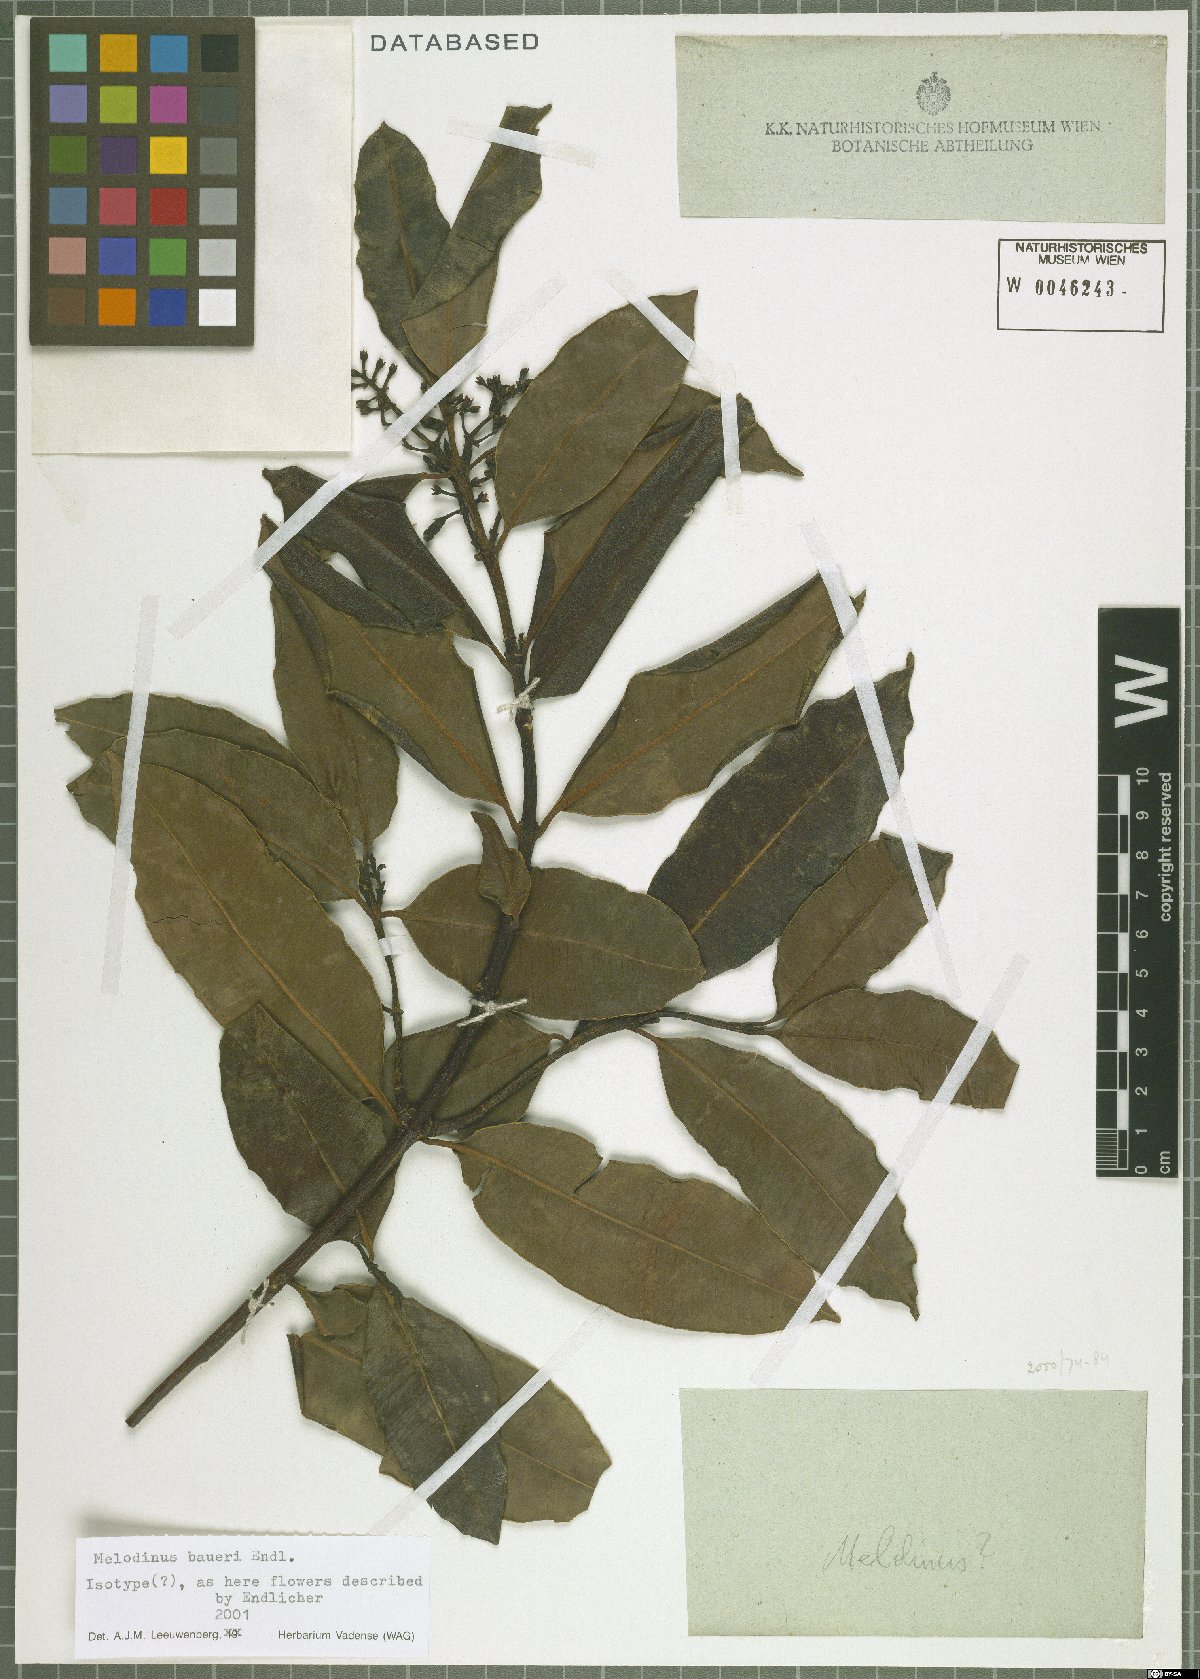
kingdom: Plantae
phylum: Tracheophyta
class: Magnoliopsida
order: Gentianales
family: Apocynaceae
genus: Melodinus
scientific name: Melodinus baueri
